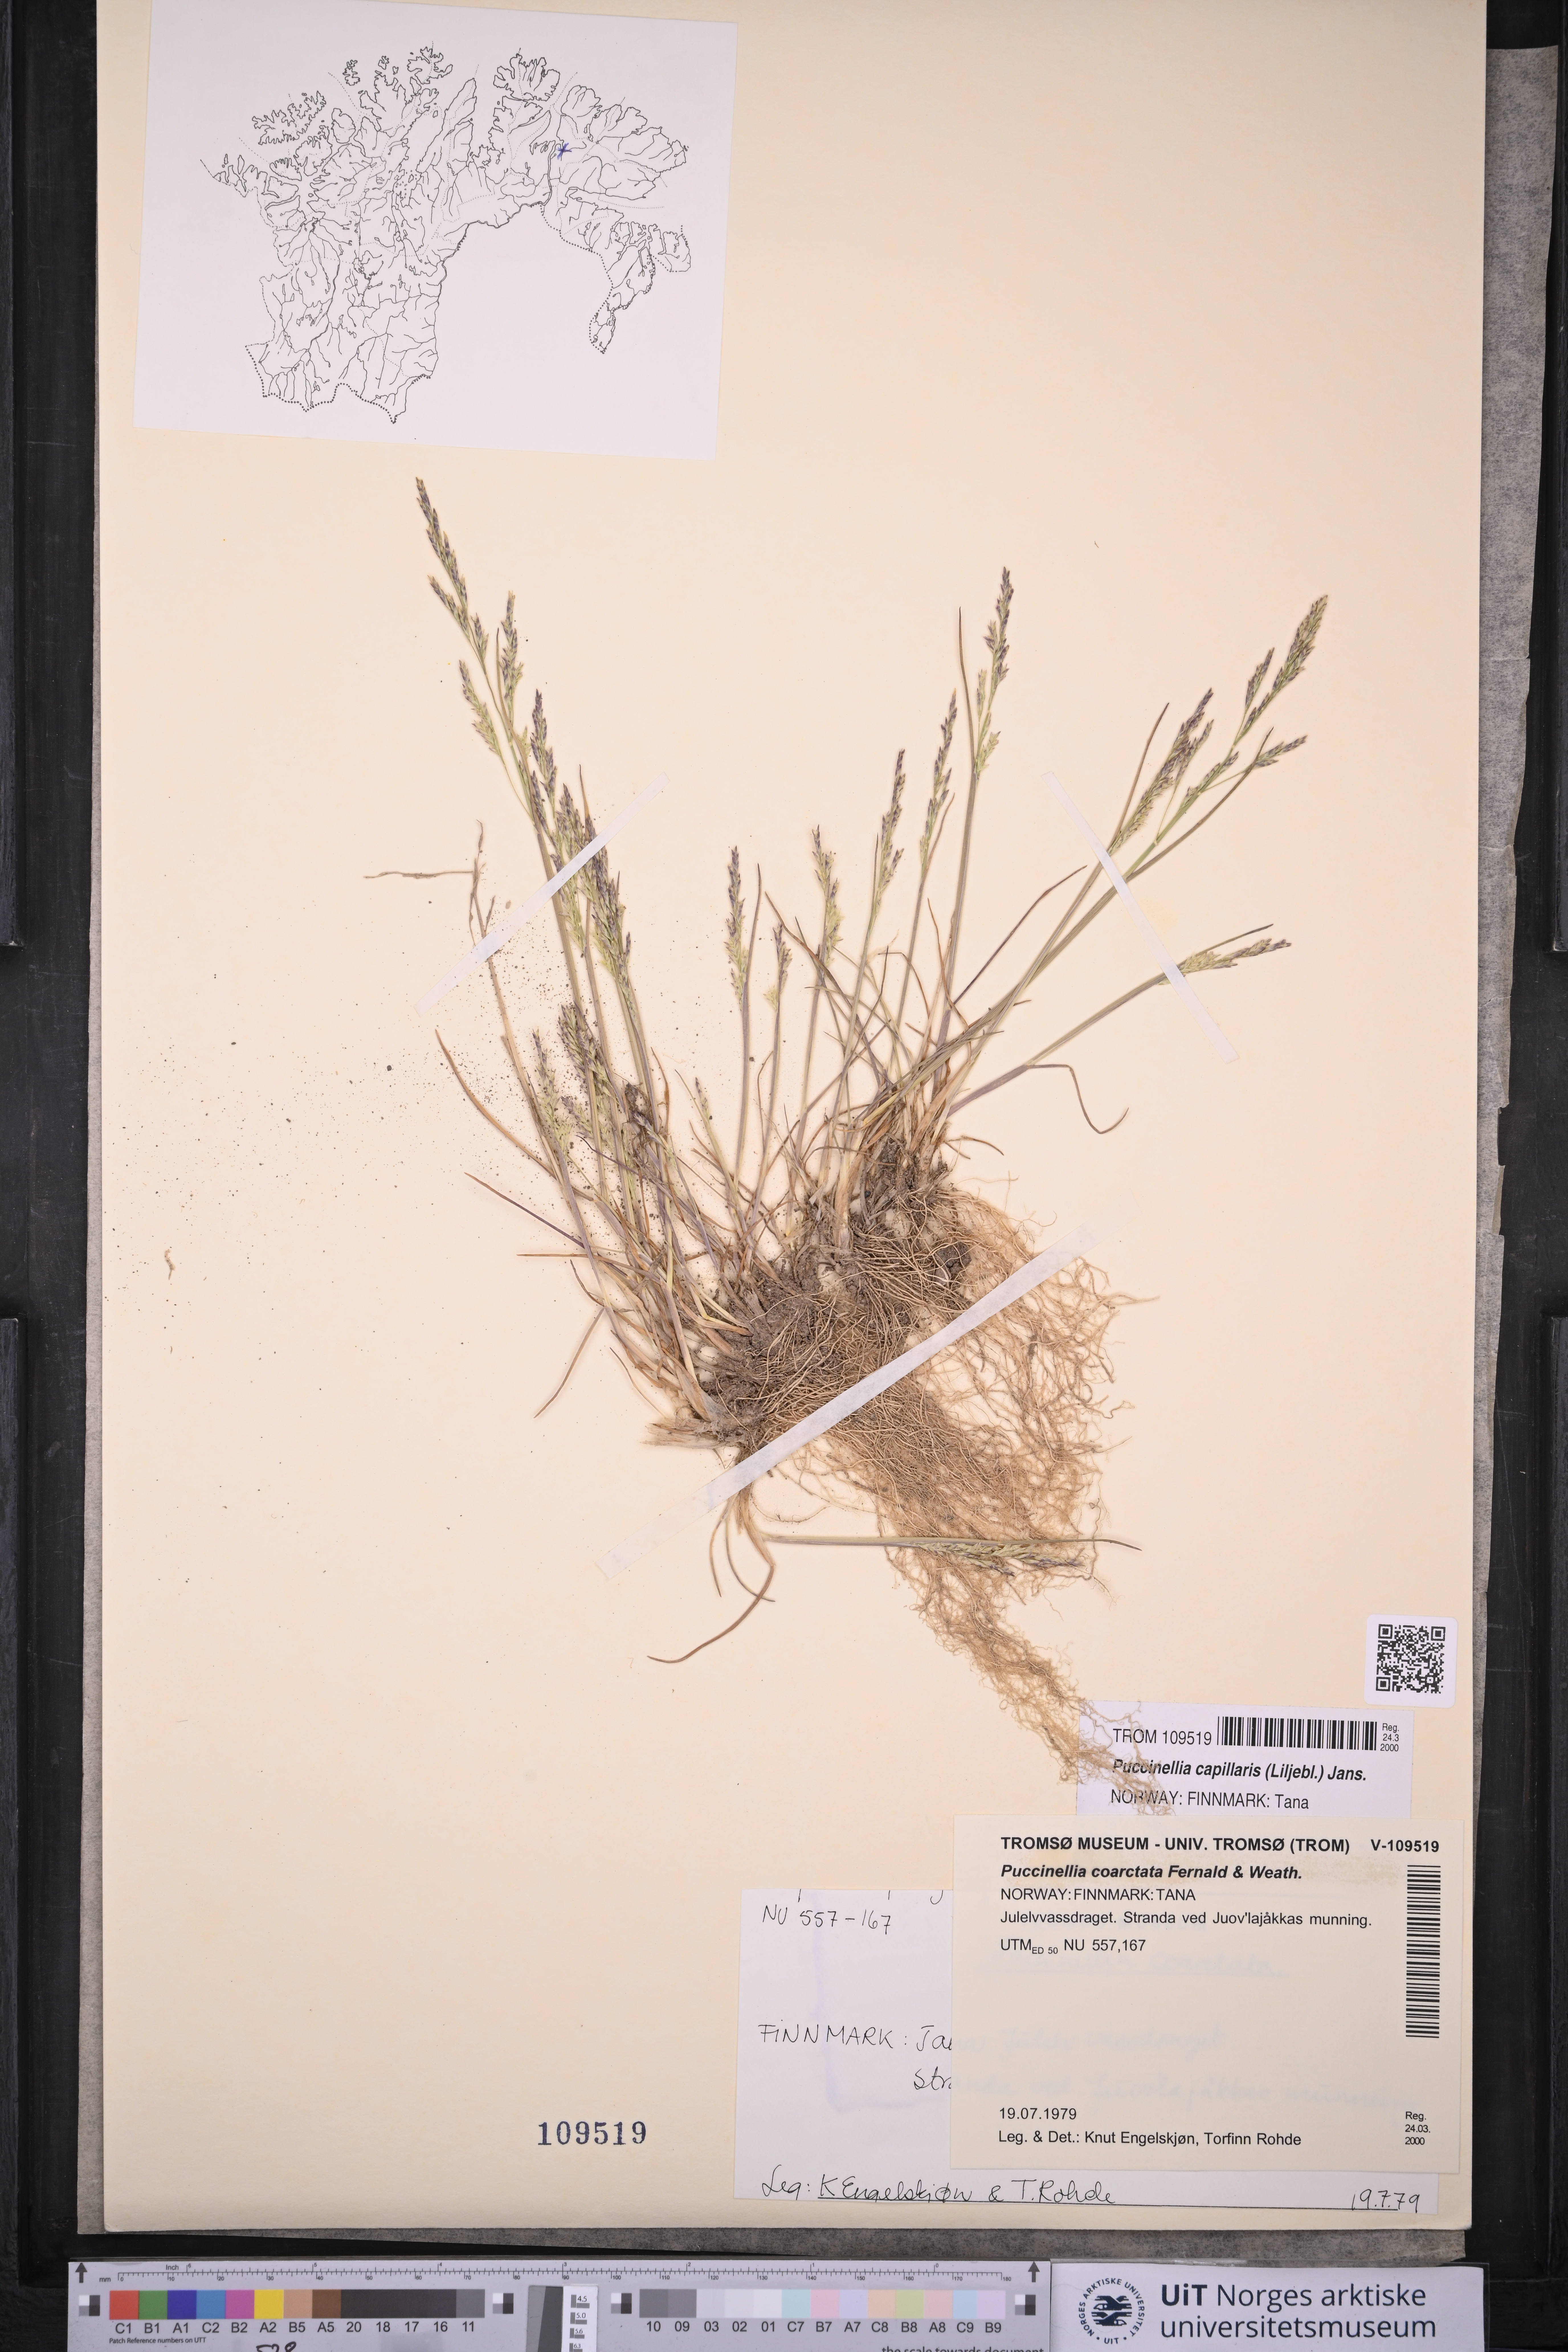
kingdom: Plantae
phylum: Tracheophyta
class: Liliopsida
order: Poales
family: Poaceae
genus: Puccinellia
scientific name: Puccinellia distans
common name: Weeping alkaligrass
